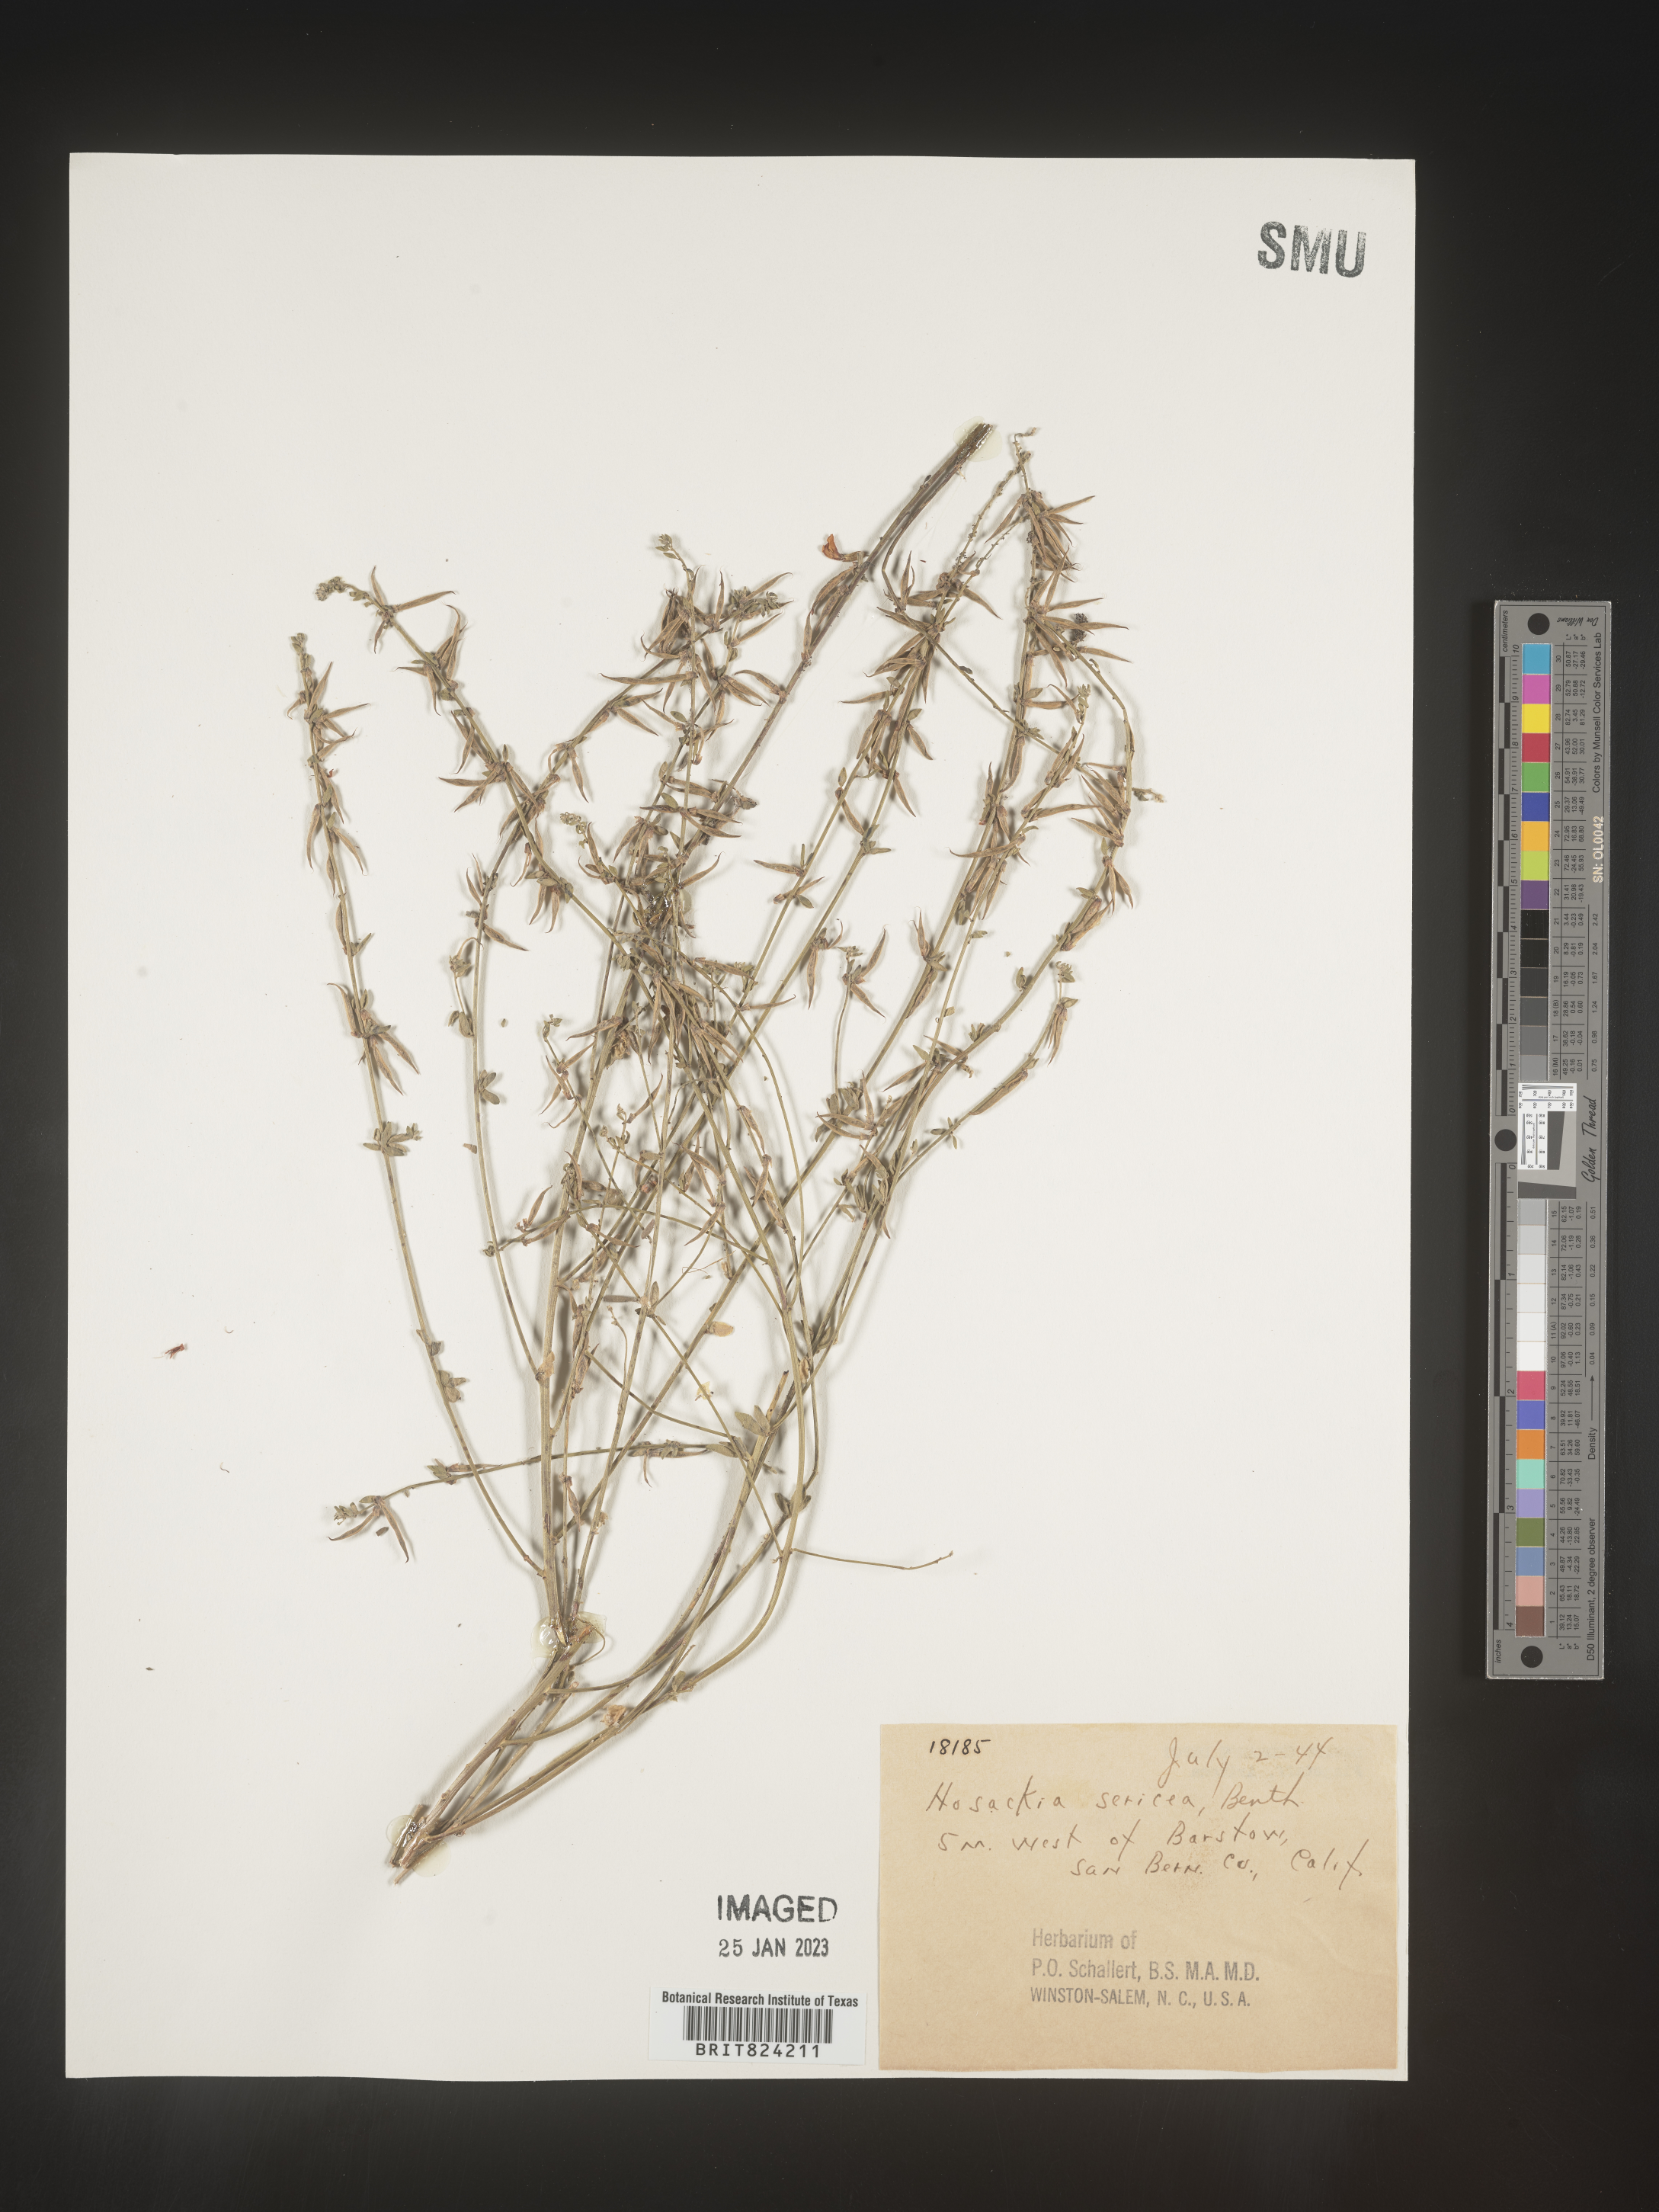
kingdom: Plantae
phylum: Tracheophyta
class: Magnoliopsida
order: Fabales
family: Fabaceae
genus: Lotus
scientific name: Lotus
